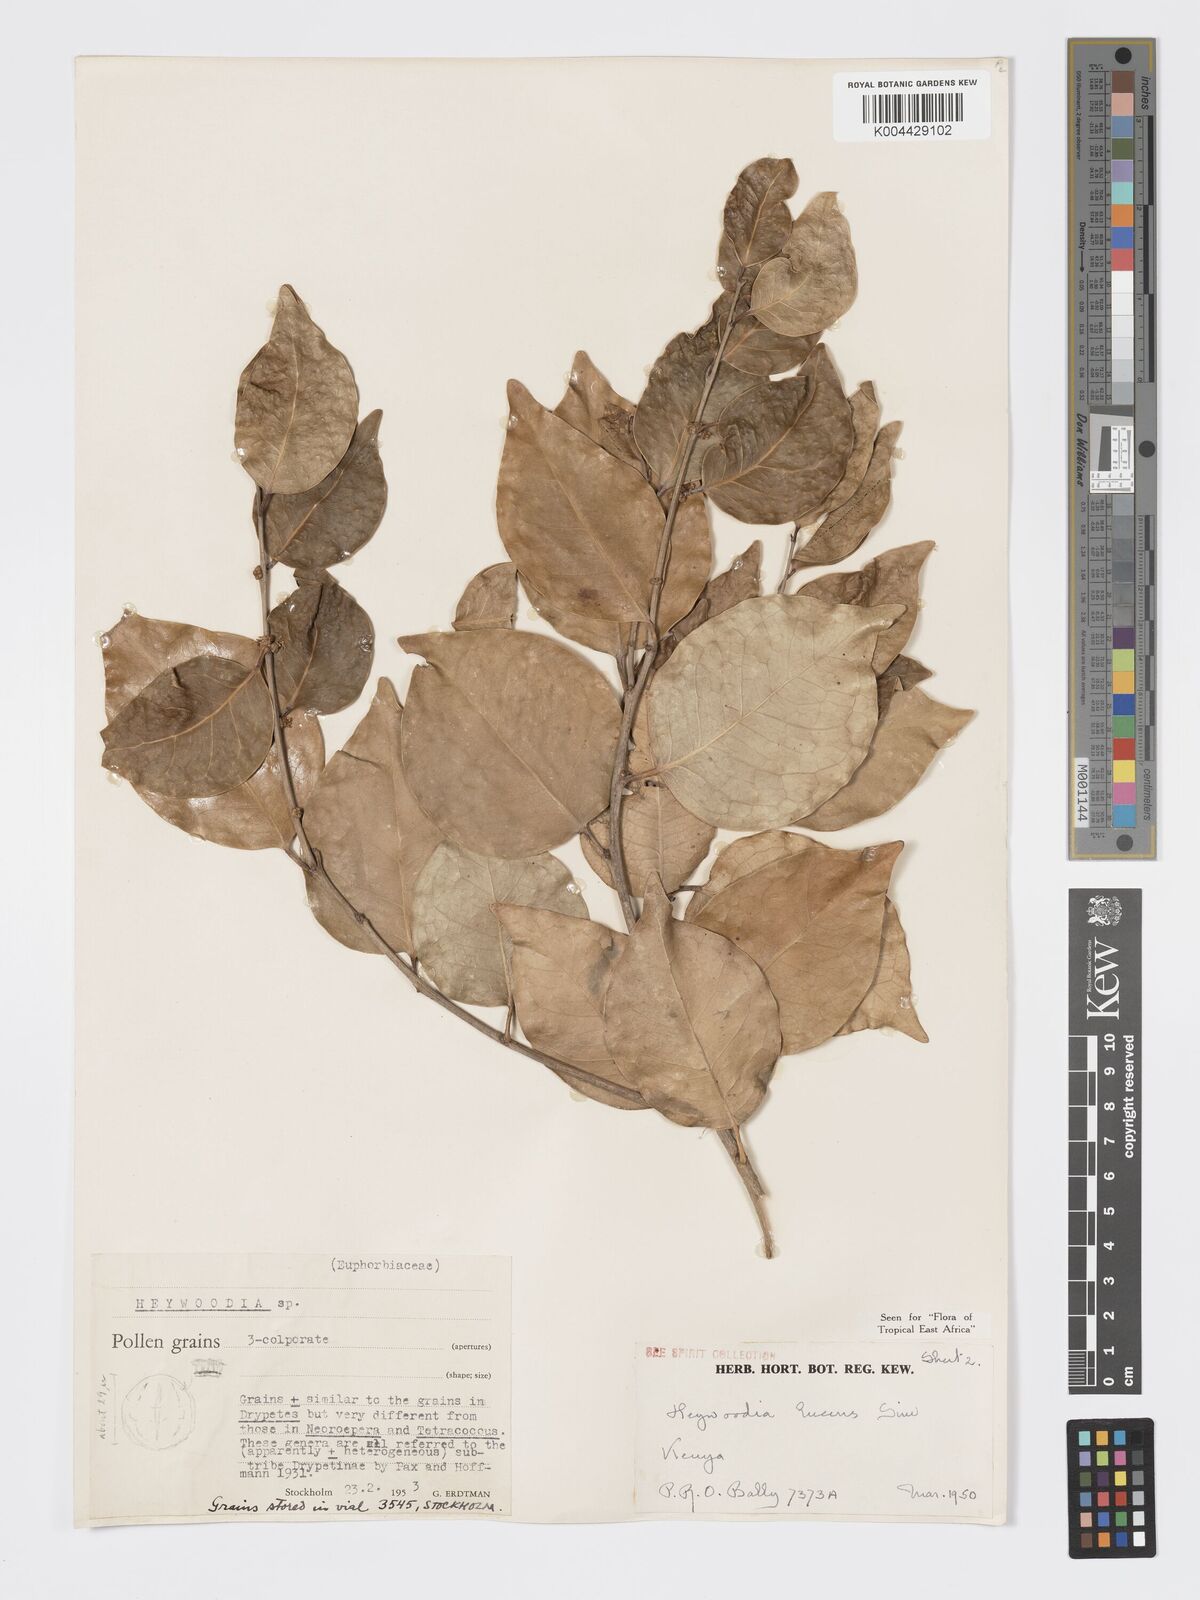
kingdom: Plantae
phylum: Tracheophyta
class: Magnoliopsida
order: Malpighiales
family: Phyllanthaceae
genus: Heywoodia
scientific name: Heywoodia lucens
